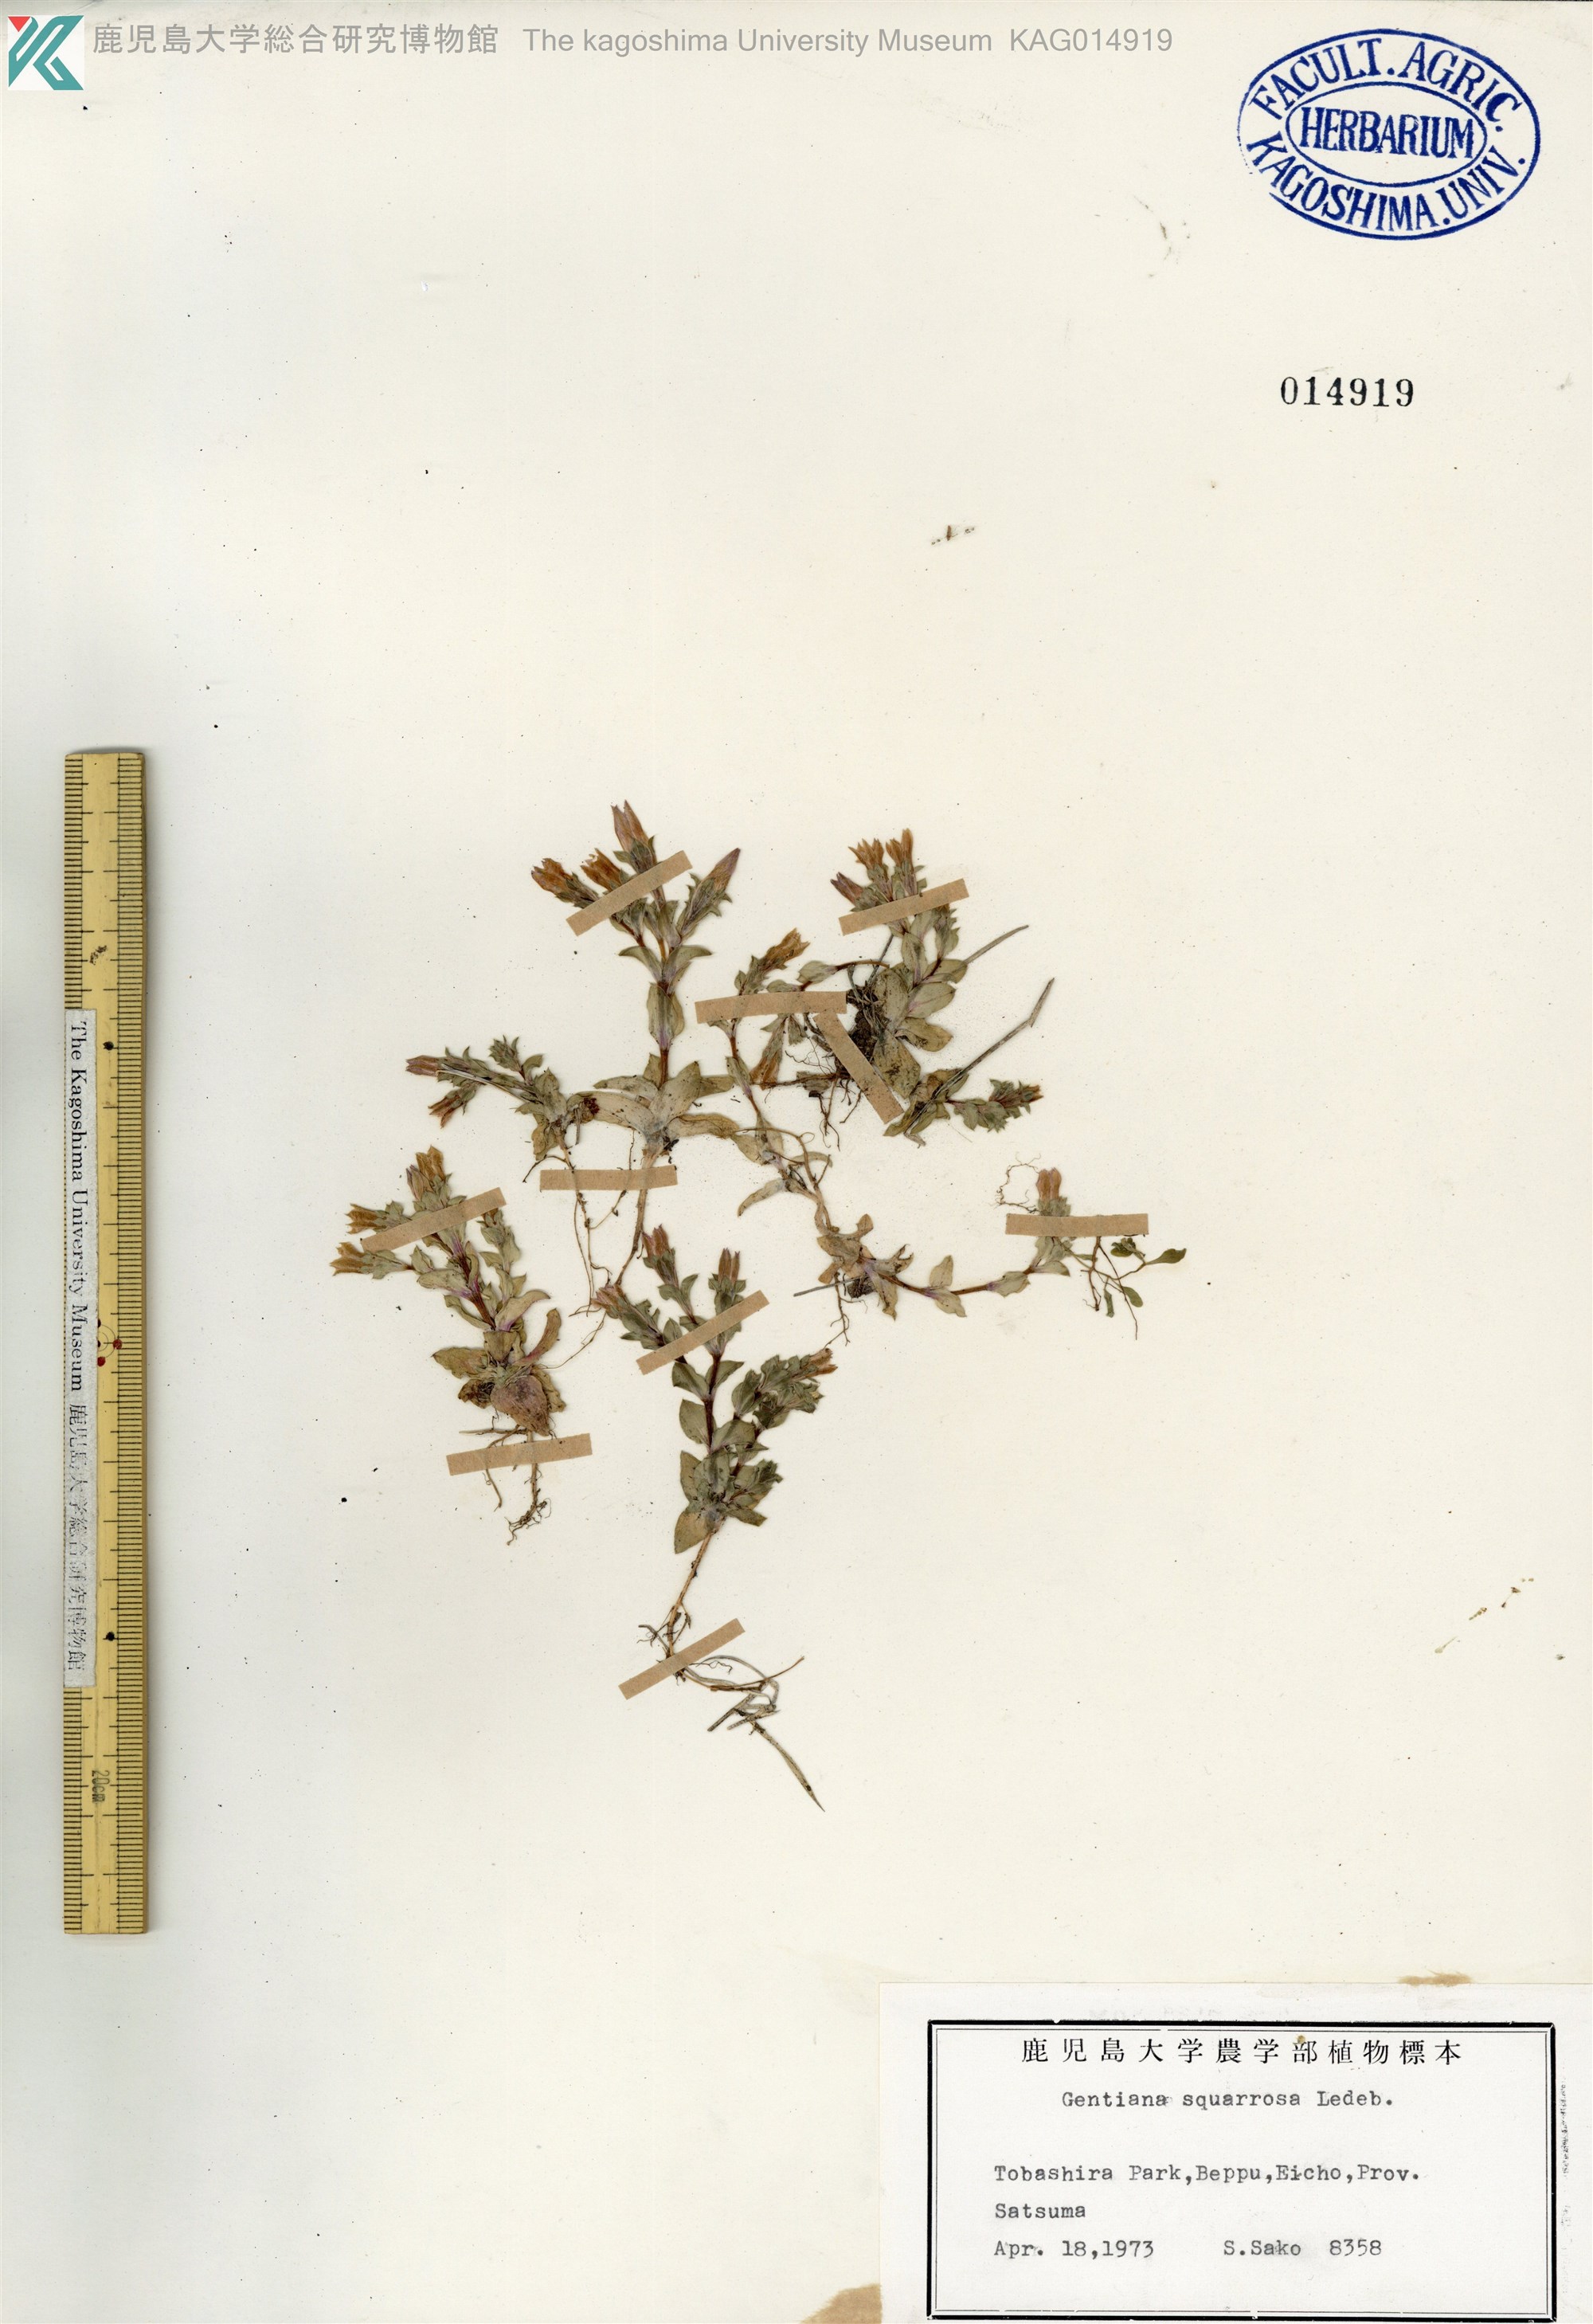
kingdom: Plantae
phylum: Tracheophyta
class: Magnoliopsida
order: Gentianales
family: Gentianaceae
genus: Gentiana
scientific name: Gentiana squarrosa
